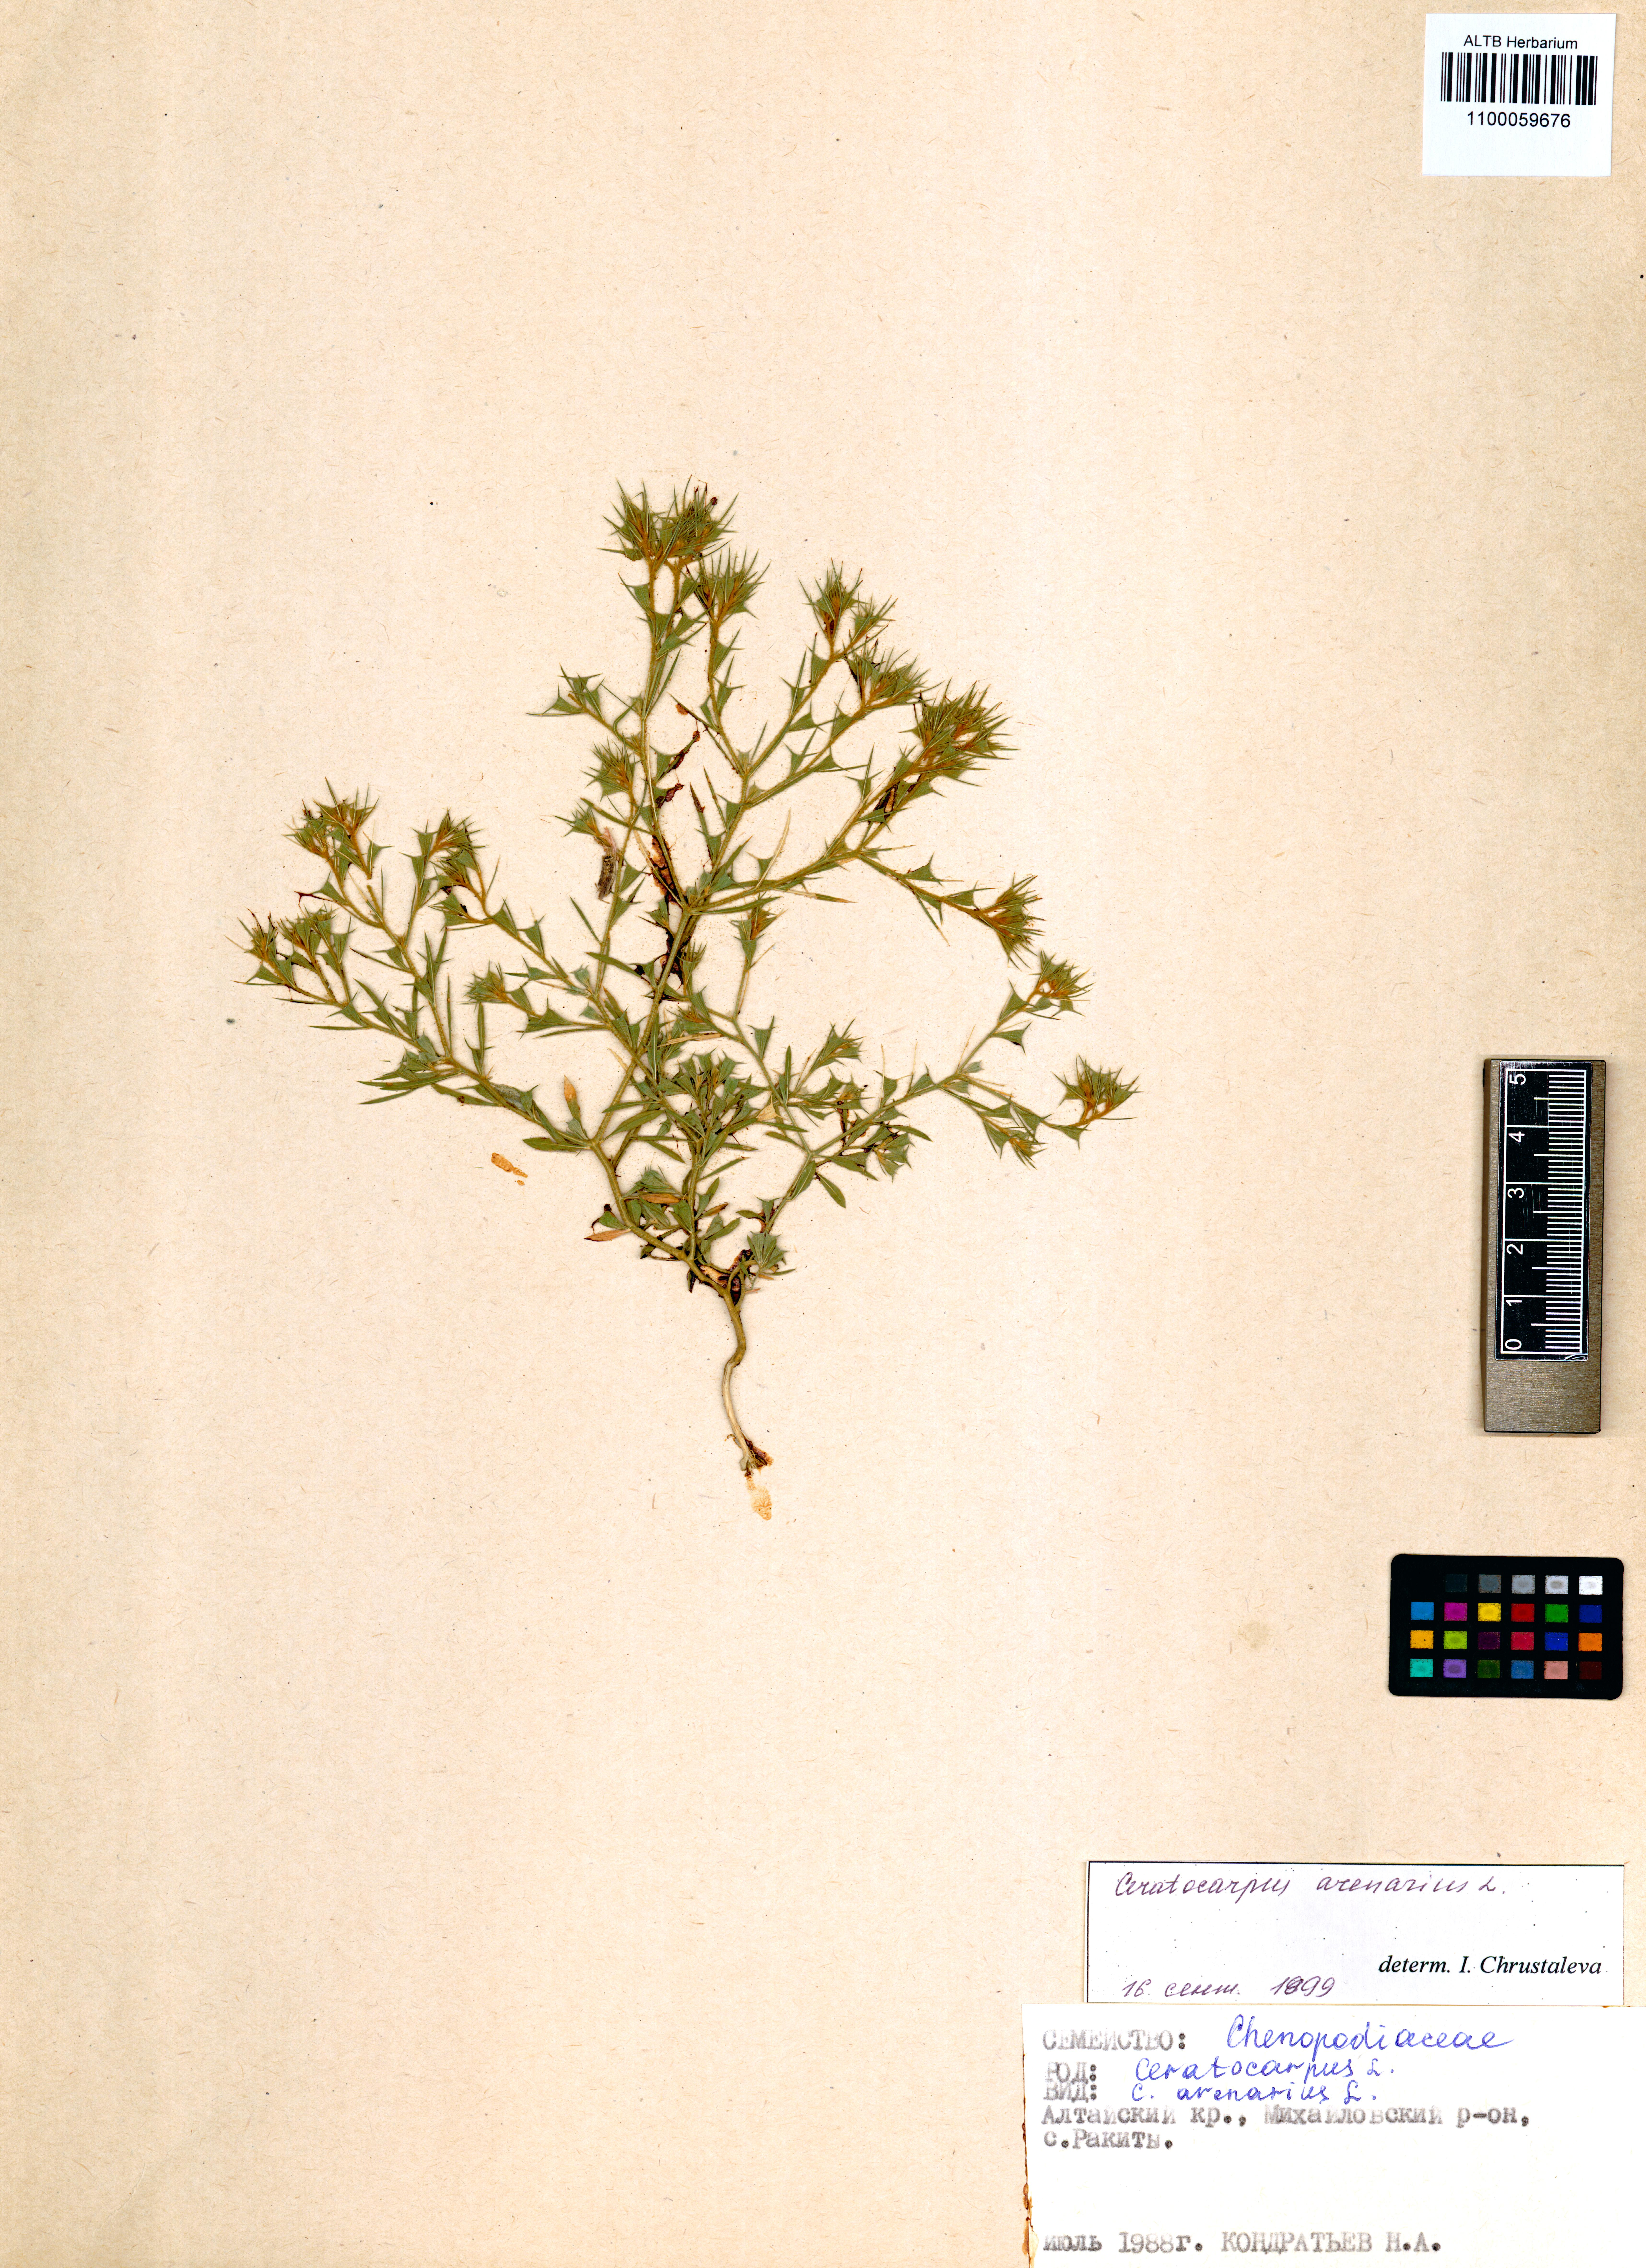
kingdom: Plantae
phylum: Tracheophyta
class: Magnoliopsida
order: Caryophyllales
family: Amaranthaceae
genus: Ceratocarpus
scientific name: Ceratocarpus arenarius
